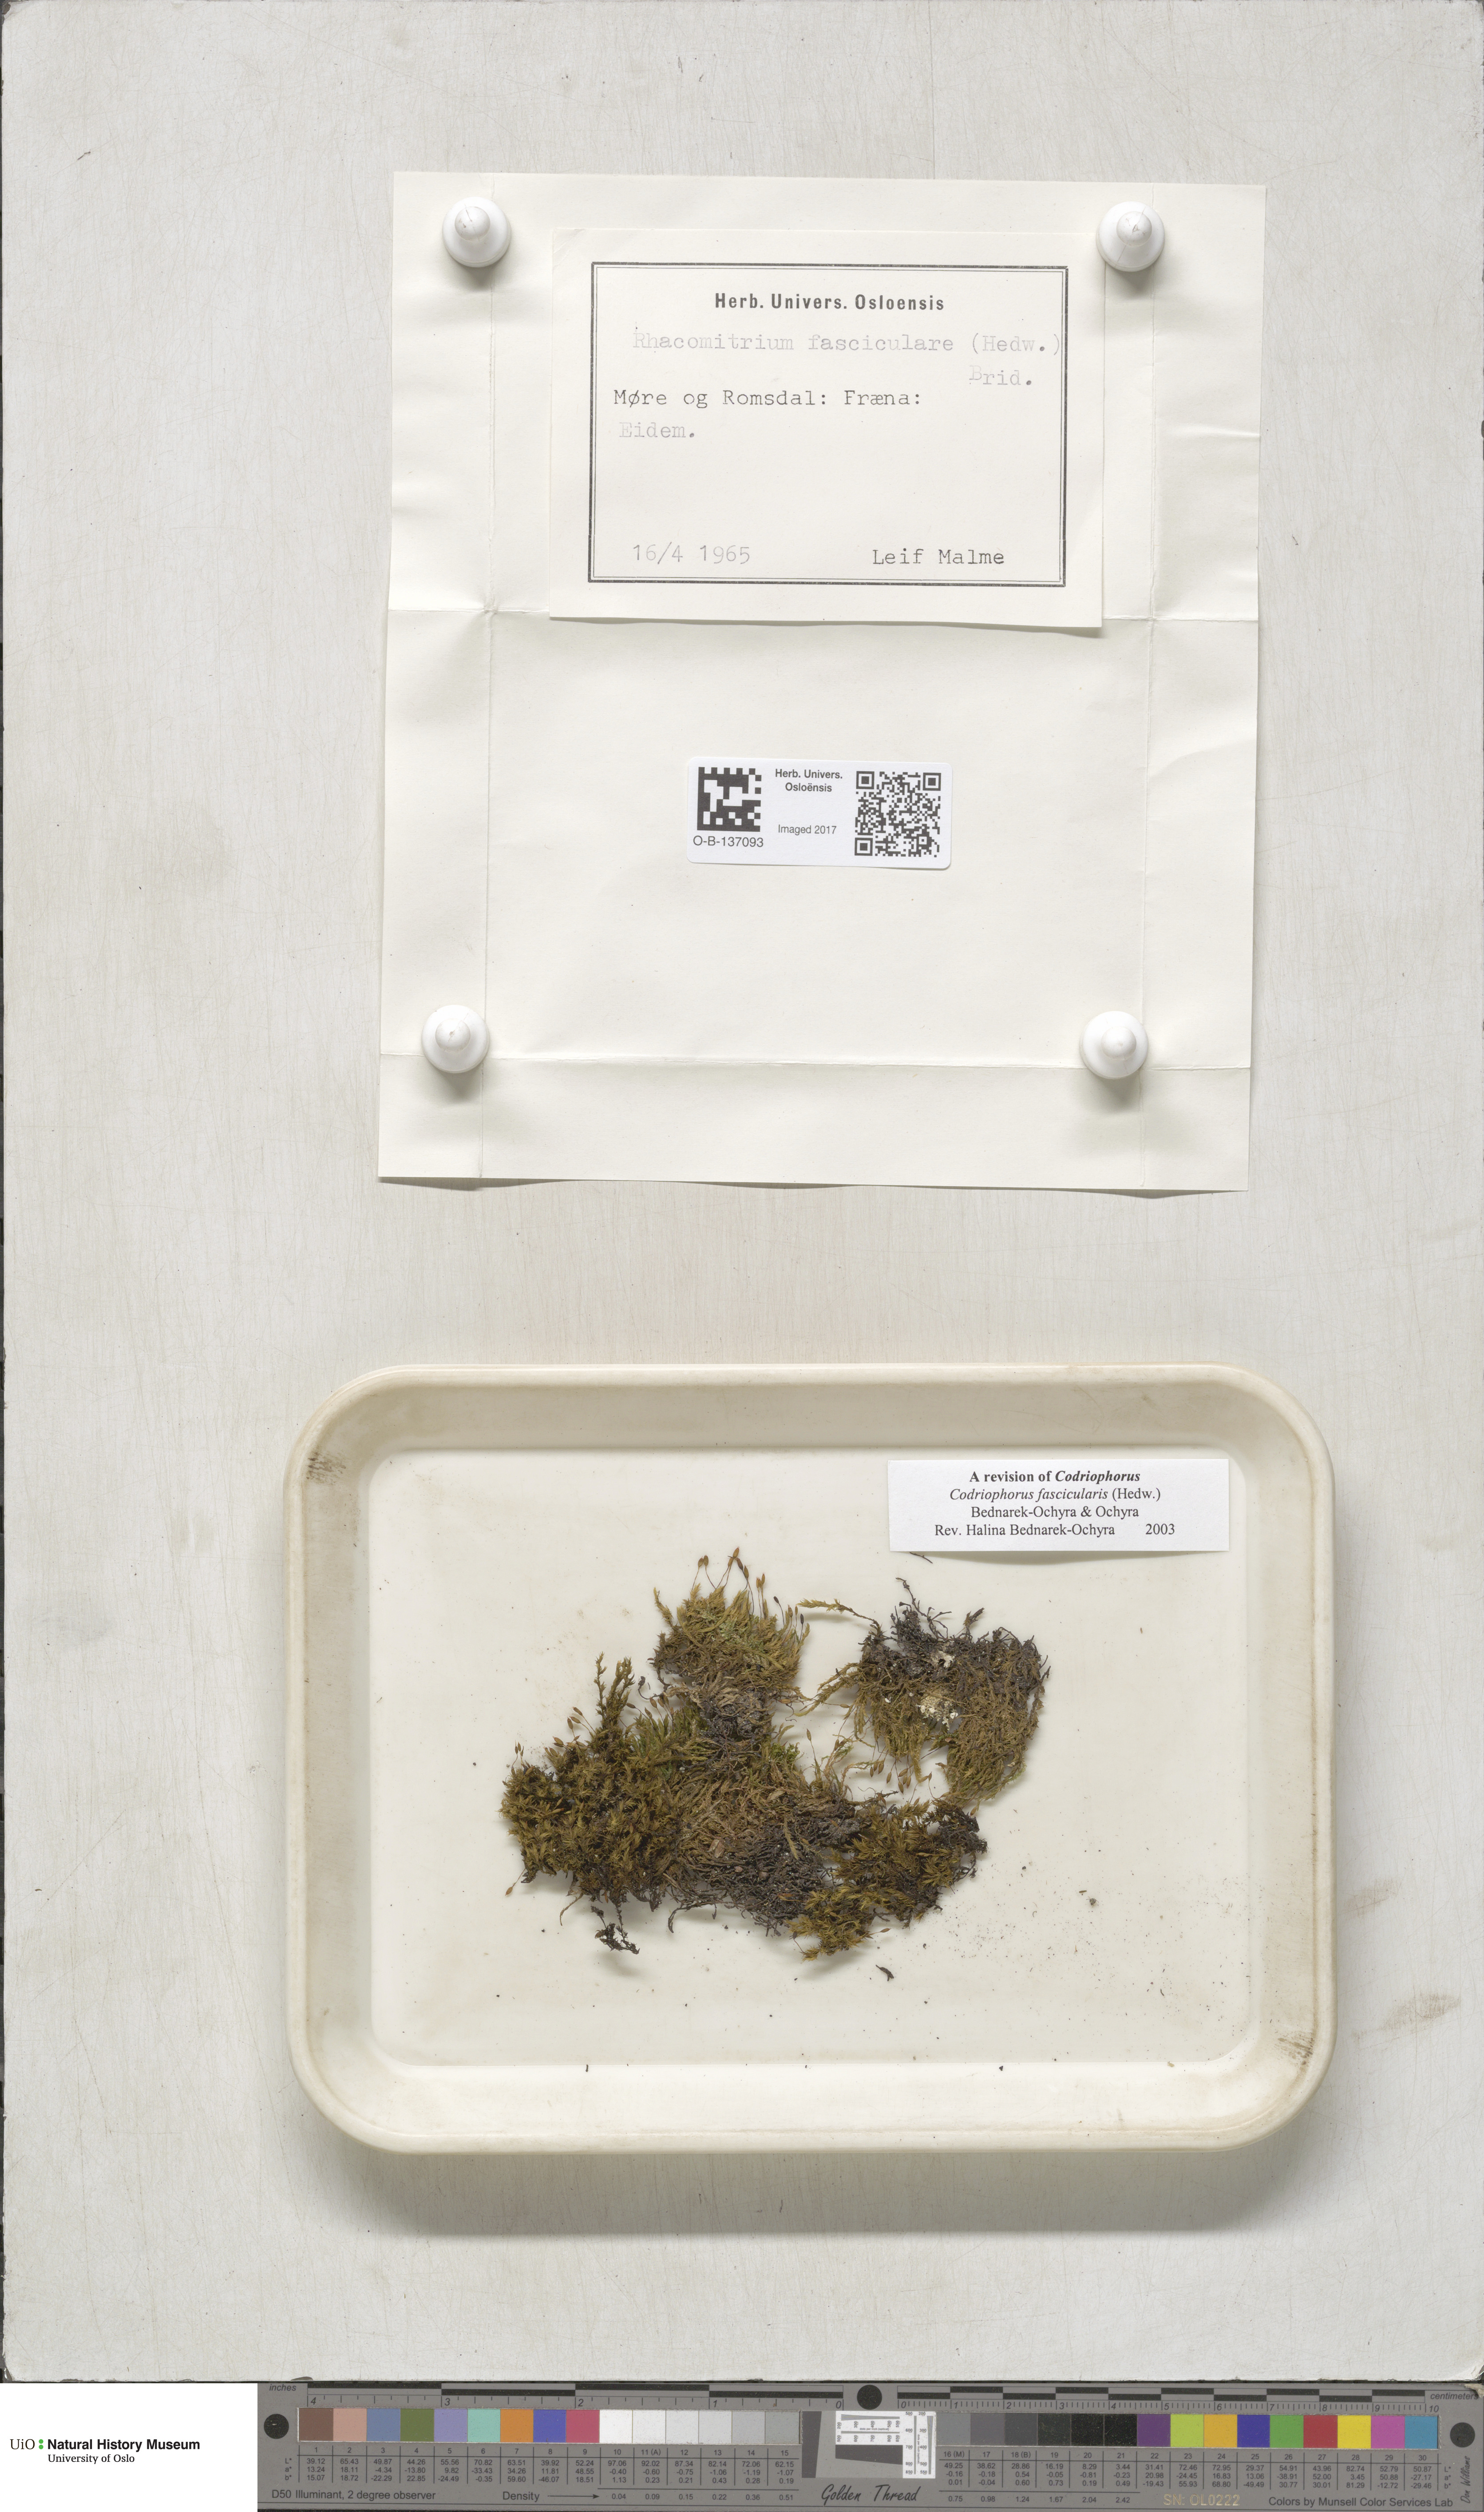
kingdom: Plantae
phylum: Bryophyta
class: Bryopsida
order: Grimmiales
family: Grimmiaceae
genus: Dilutineuron
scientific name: Dilutineuron fasciculare
